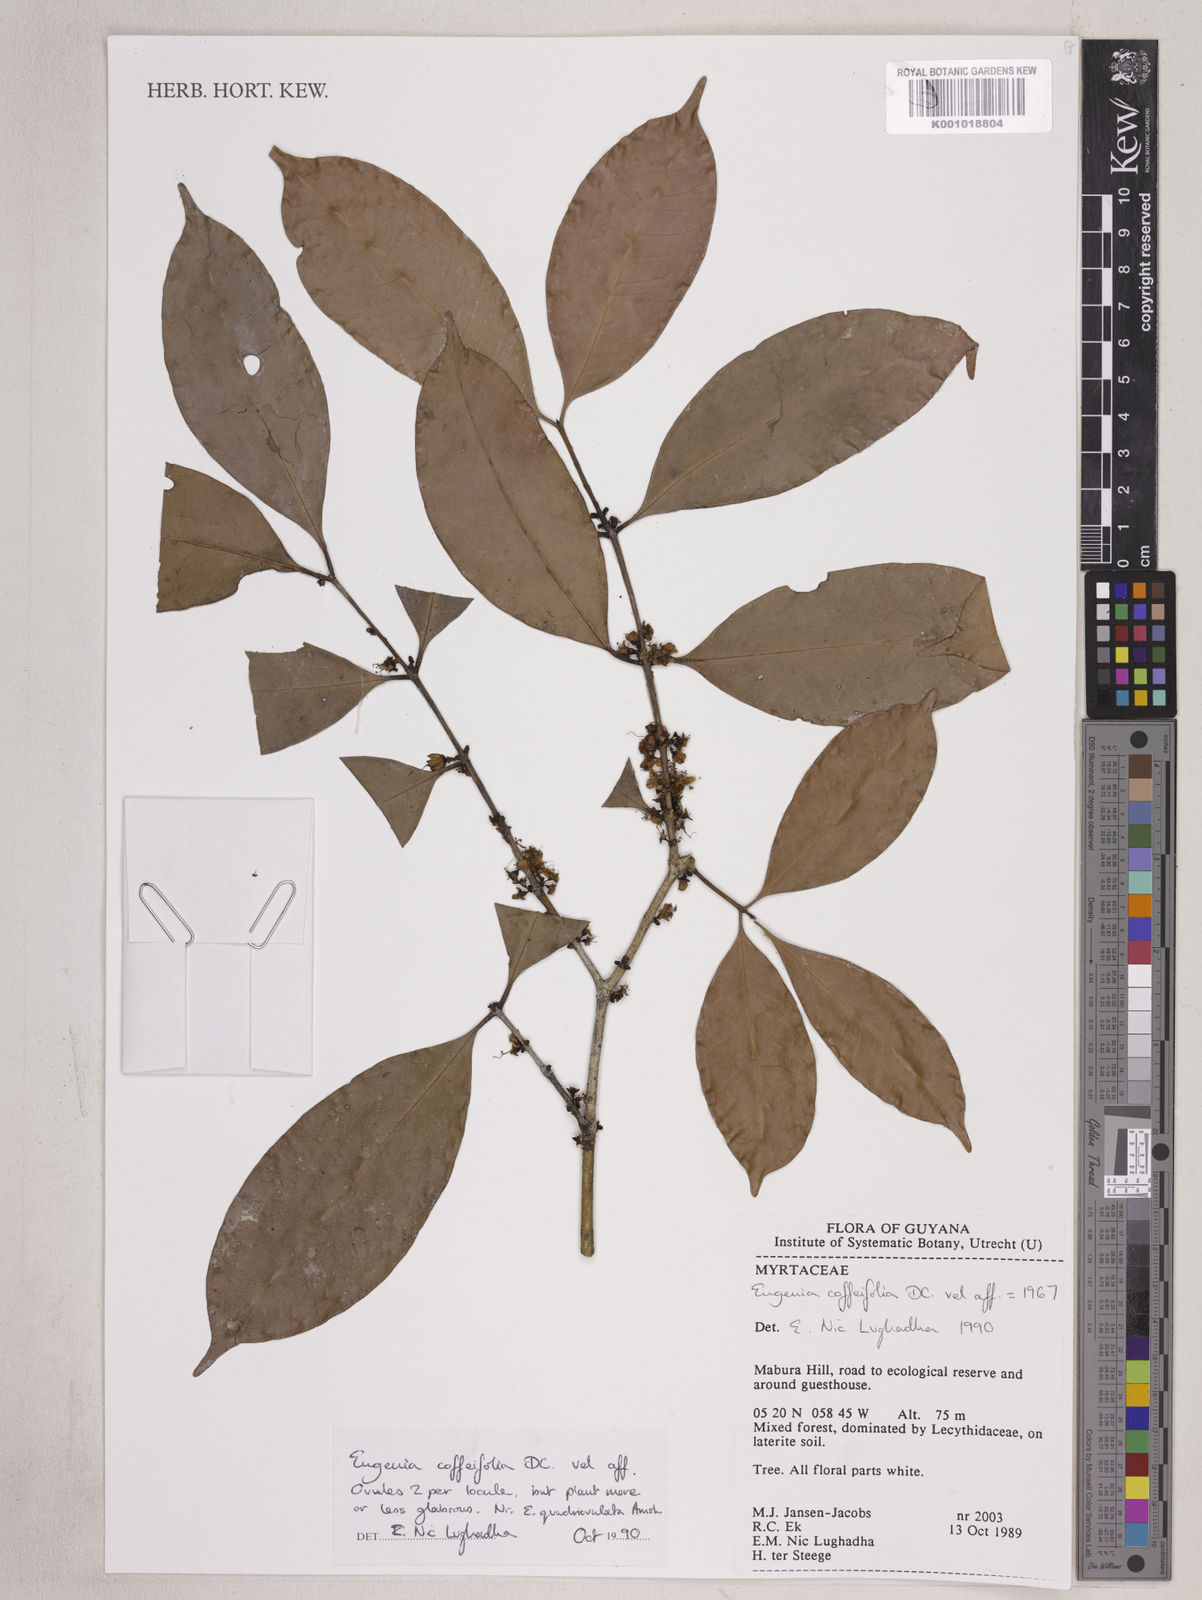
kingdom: Plantae
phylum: Tracheophyta
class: Magnoliopsida
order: Myrtales
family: Myrtaceae
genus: Eugenia
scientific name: Eugenia coffeifolia
